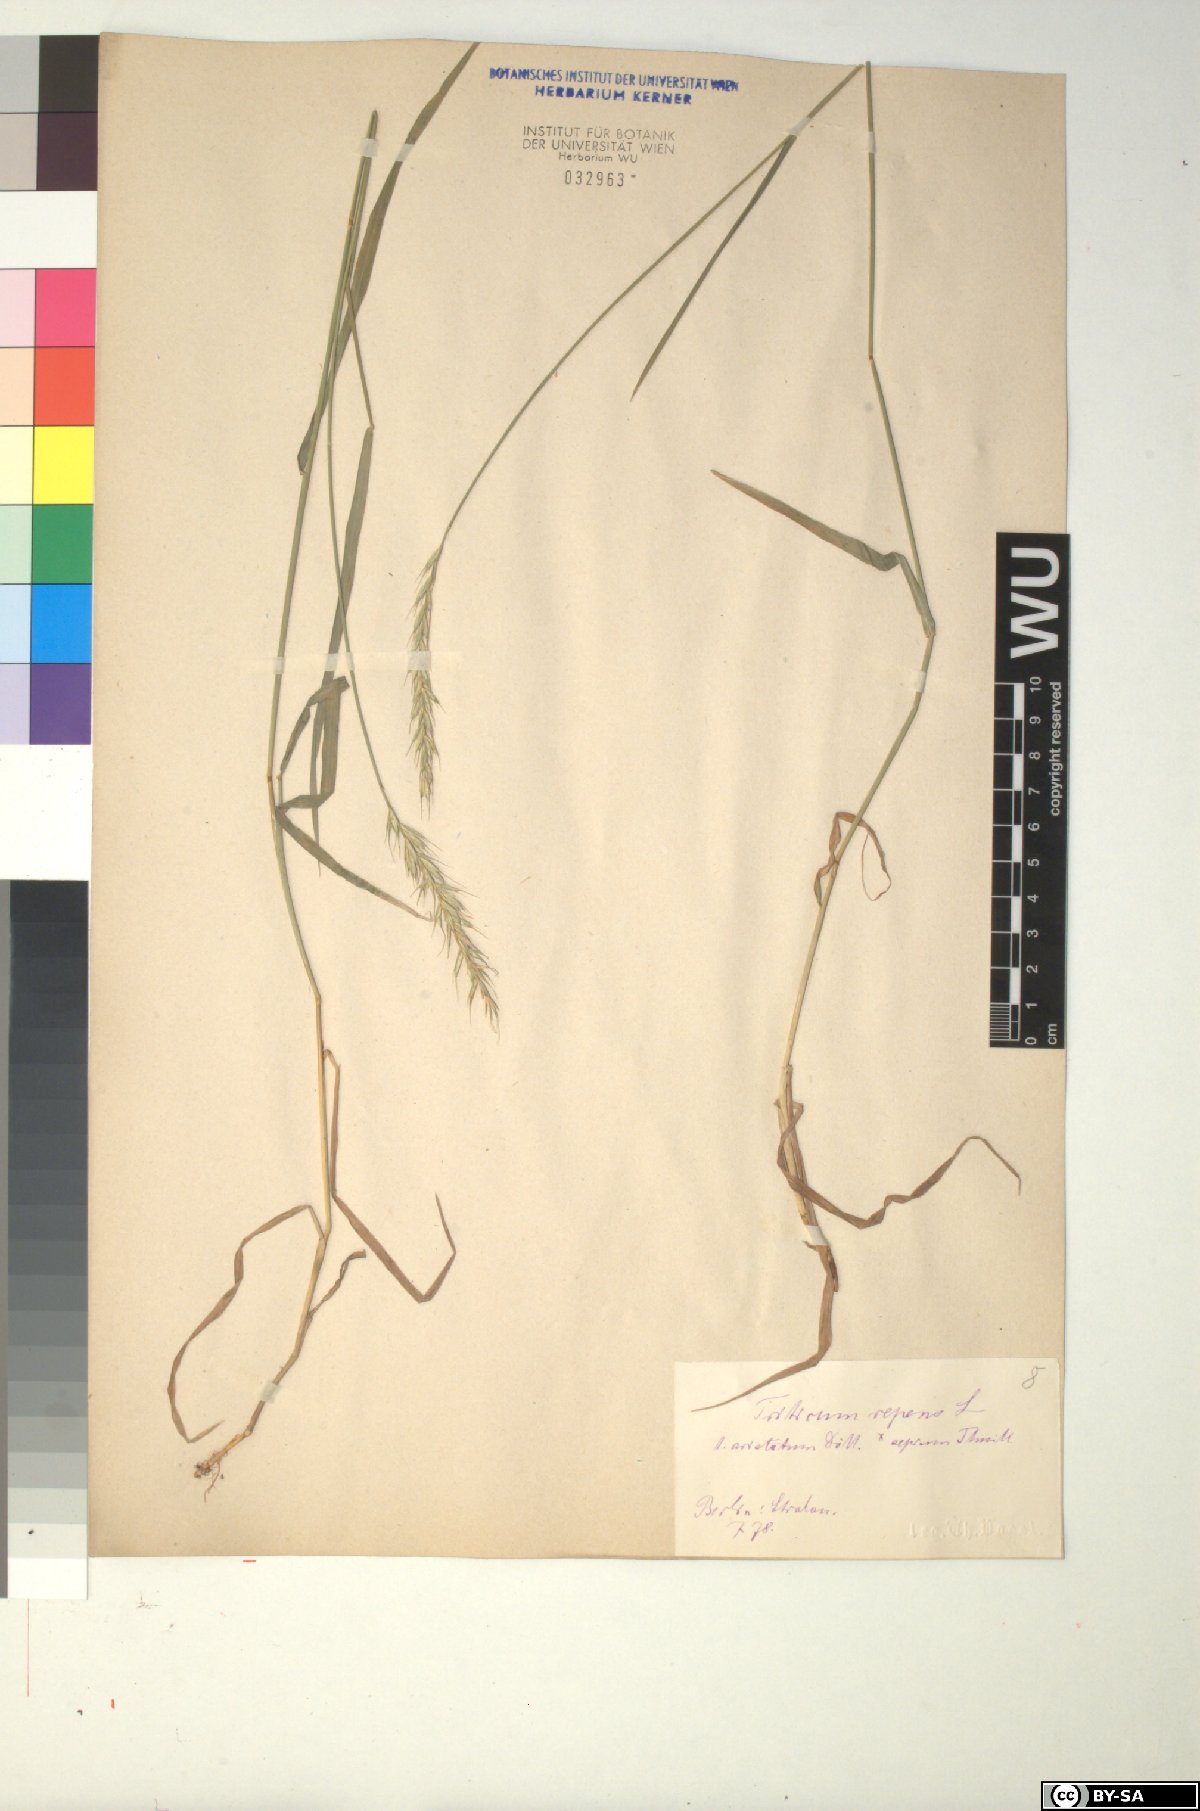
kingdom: Plantae
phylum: Tracheophyta
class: Liliopsida
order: Poales
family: Poaceae
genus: Elymus
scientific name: Elymus repens
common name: Quackgrass
